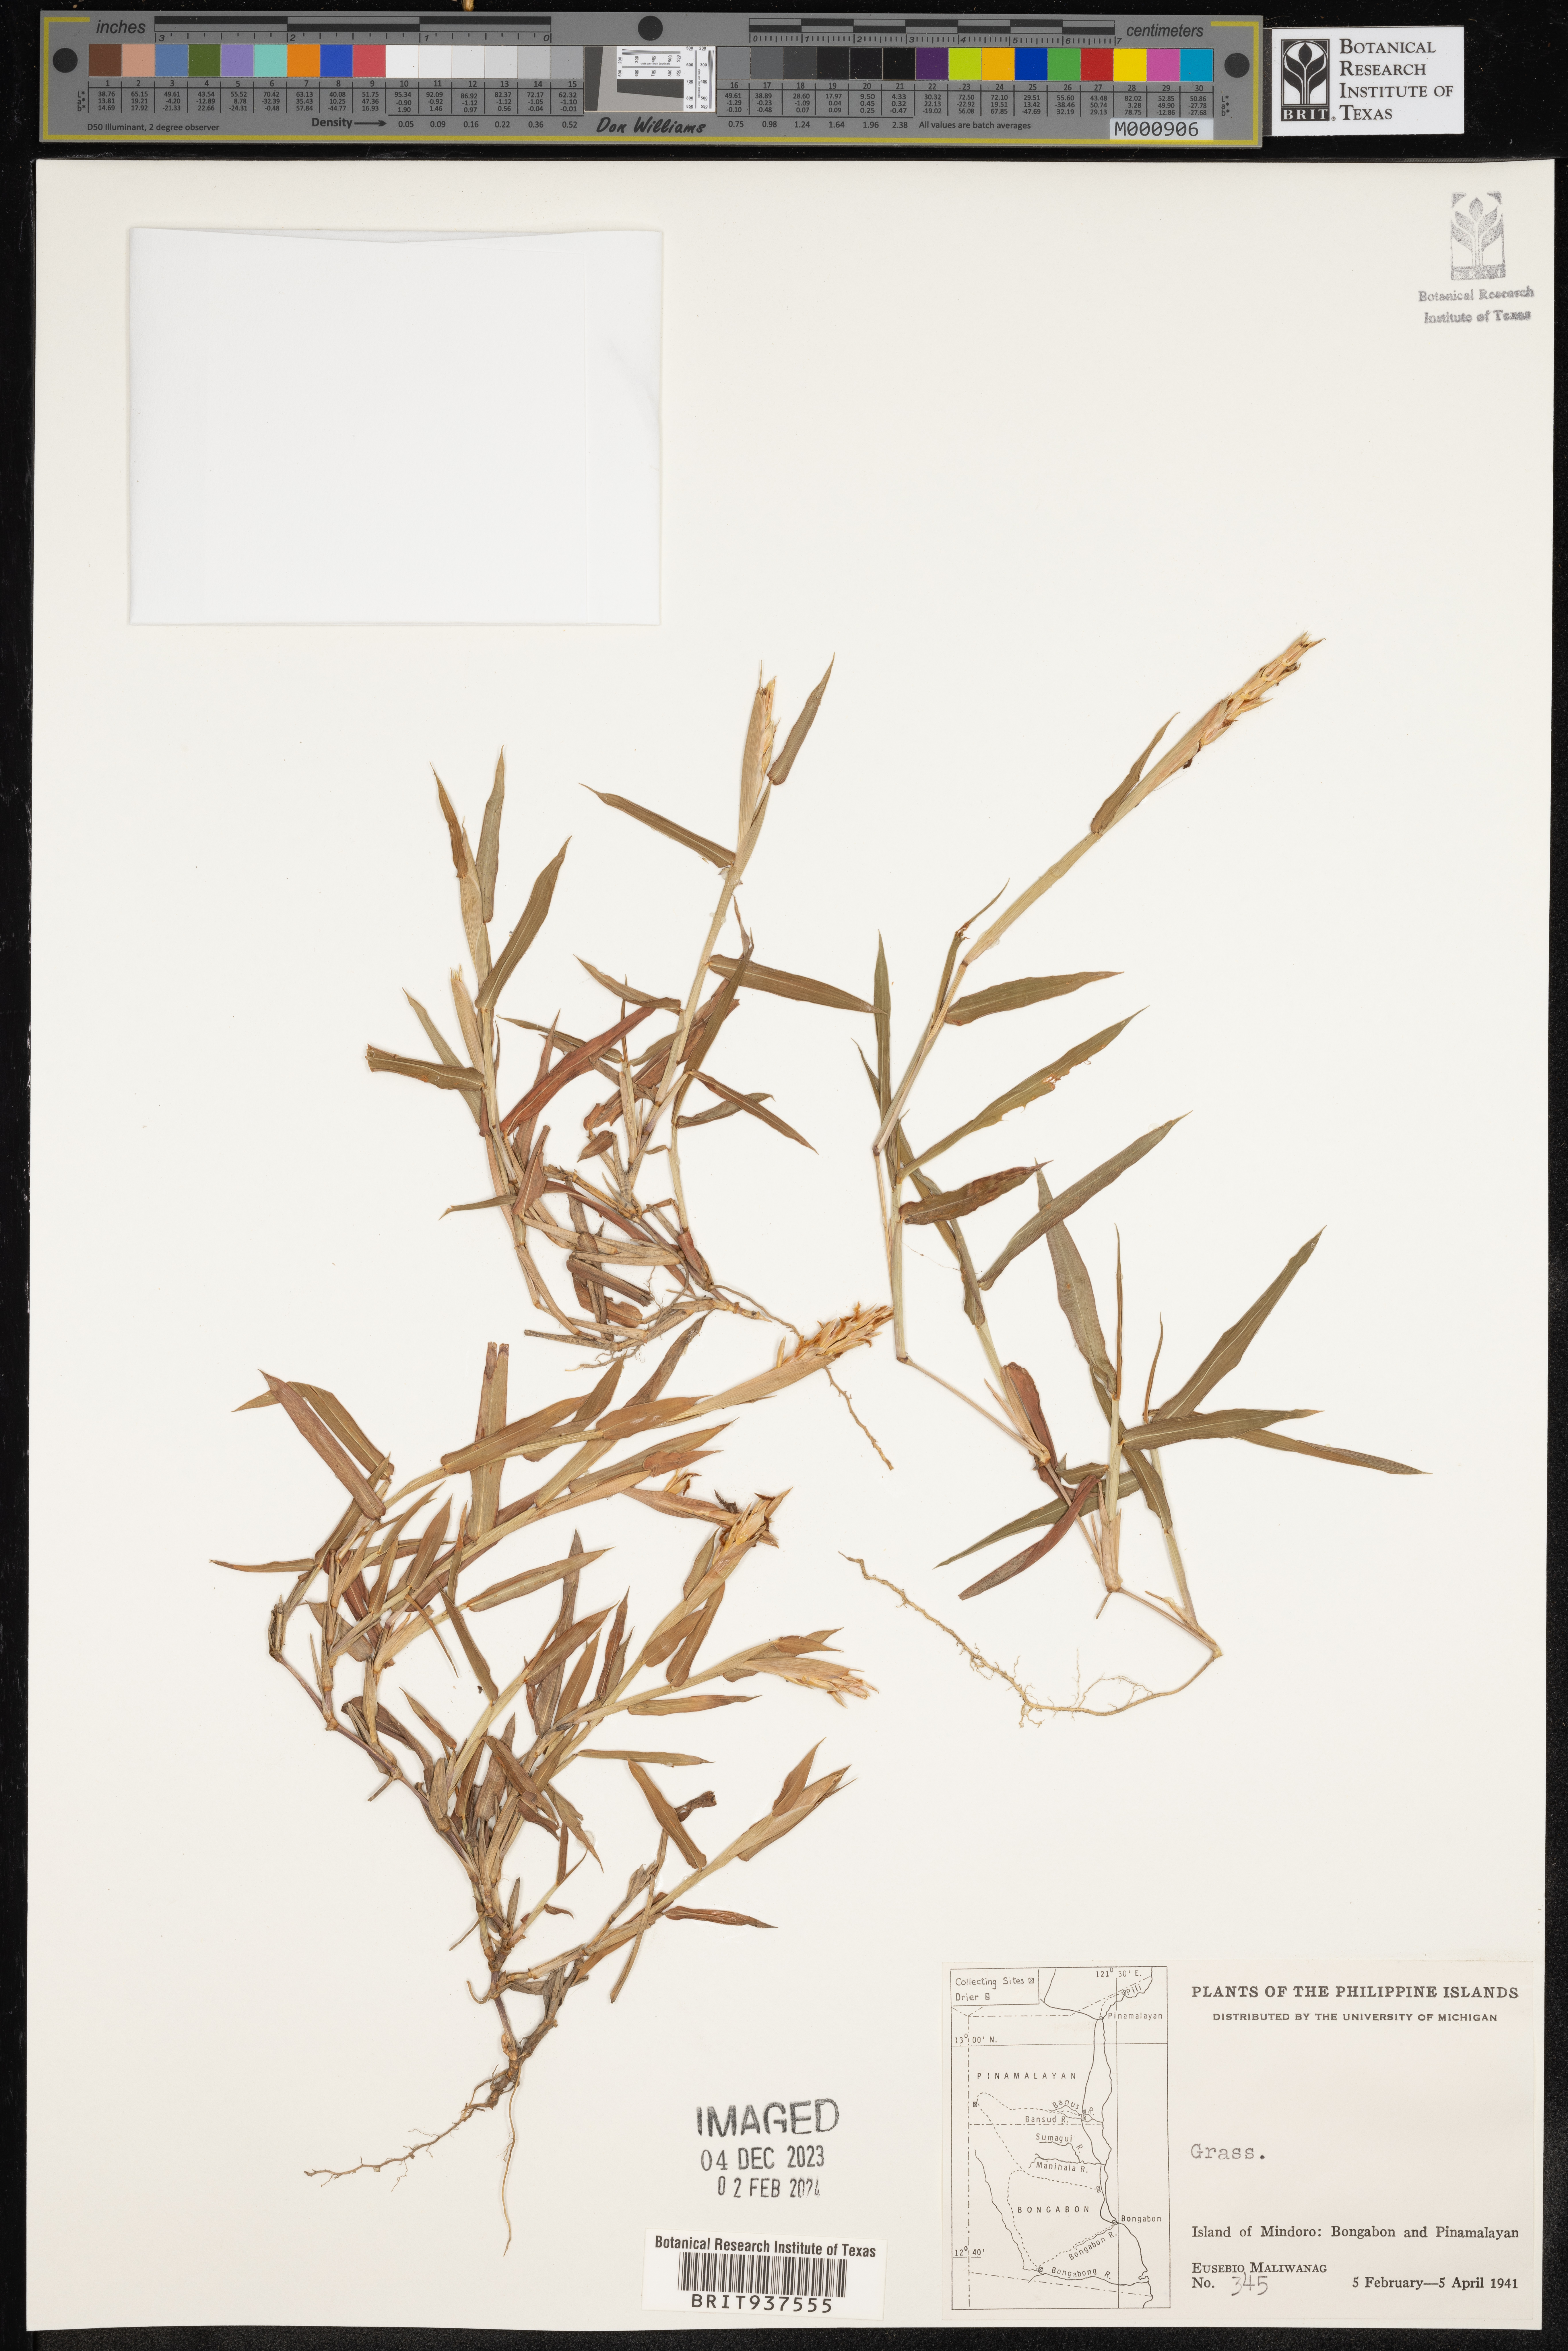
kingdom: Plantae
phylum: Tracheophyta
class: Liliopsida
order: Poales
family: Poaceae
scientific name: Poaceae
